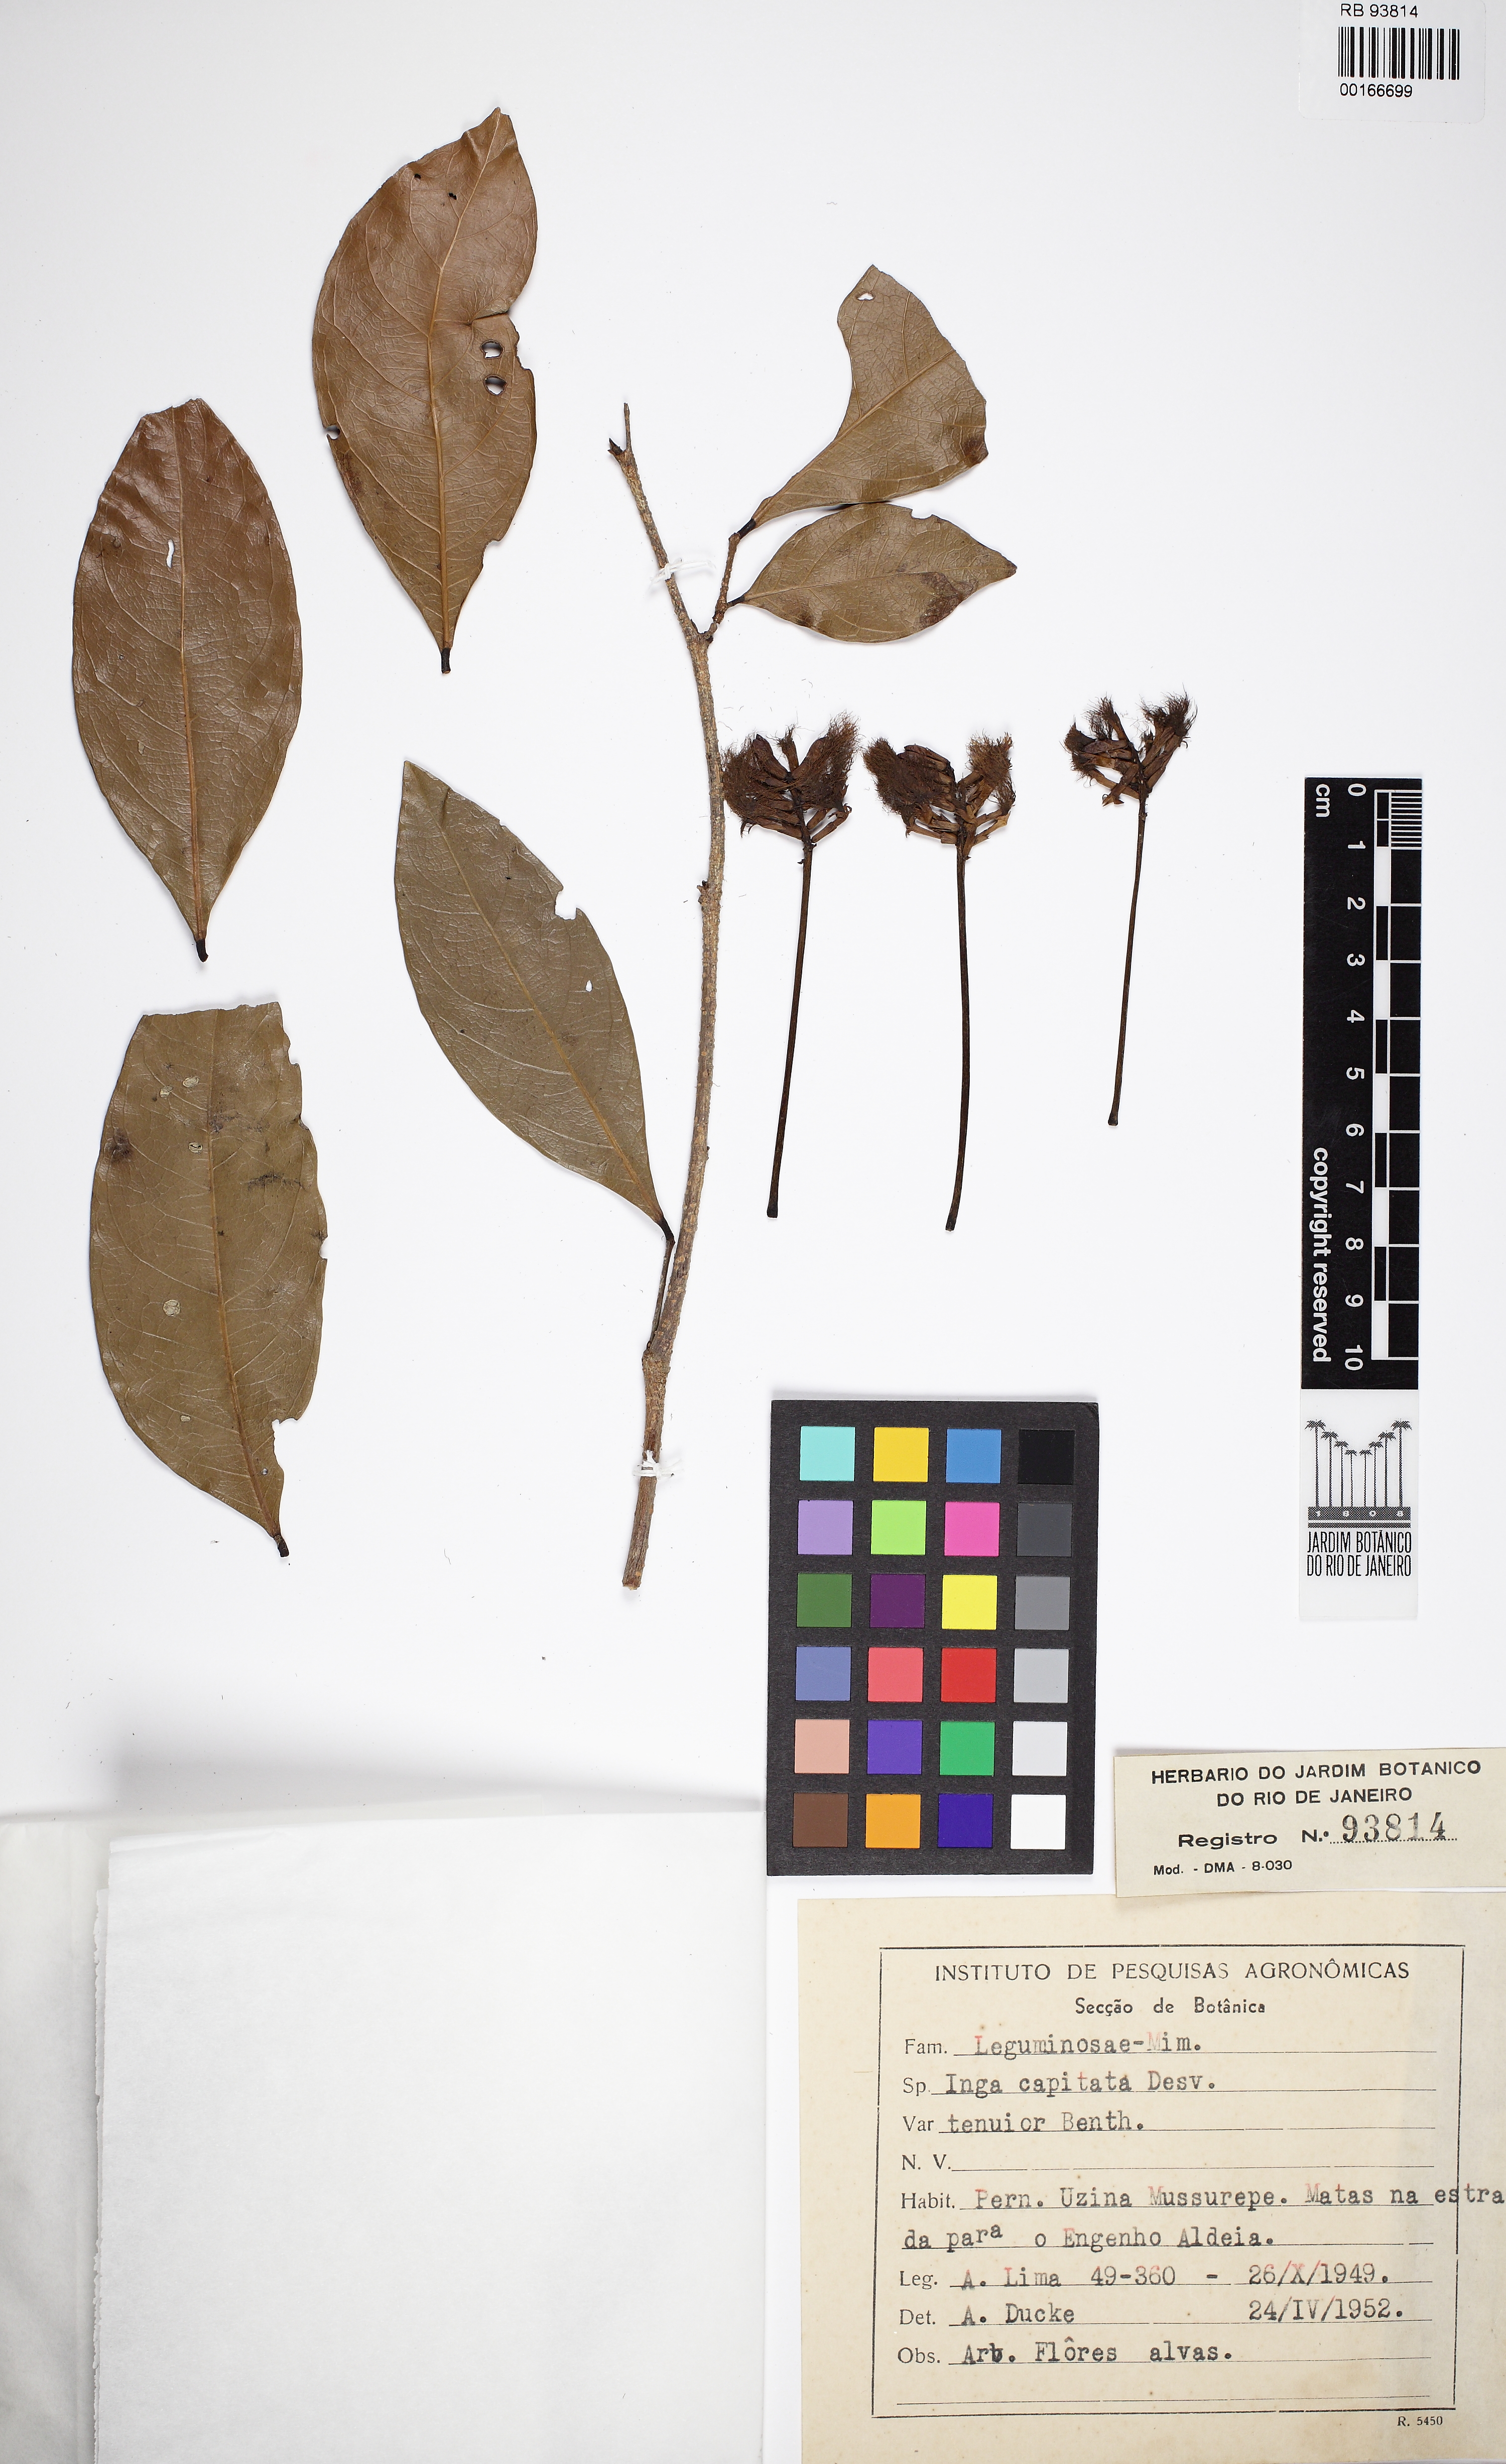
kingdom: Plantae
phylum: Tracheophyta
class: Magnoliopsida
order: Fabales
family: Fabaceae
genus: Inga
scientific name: Inga capitata
